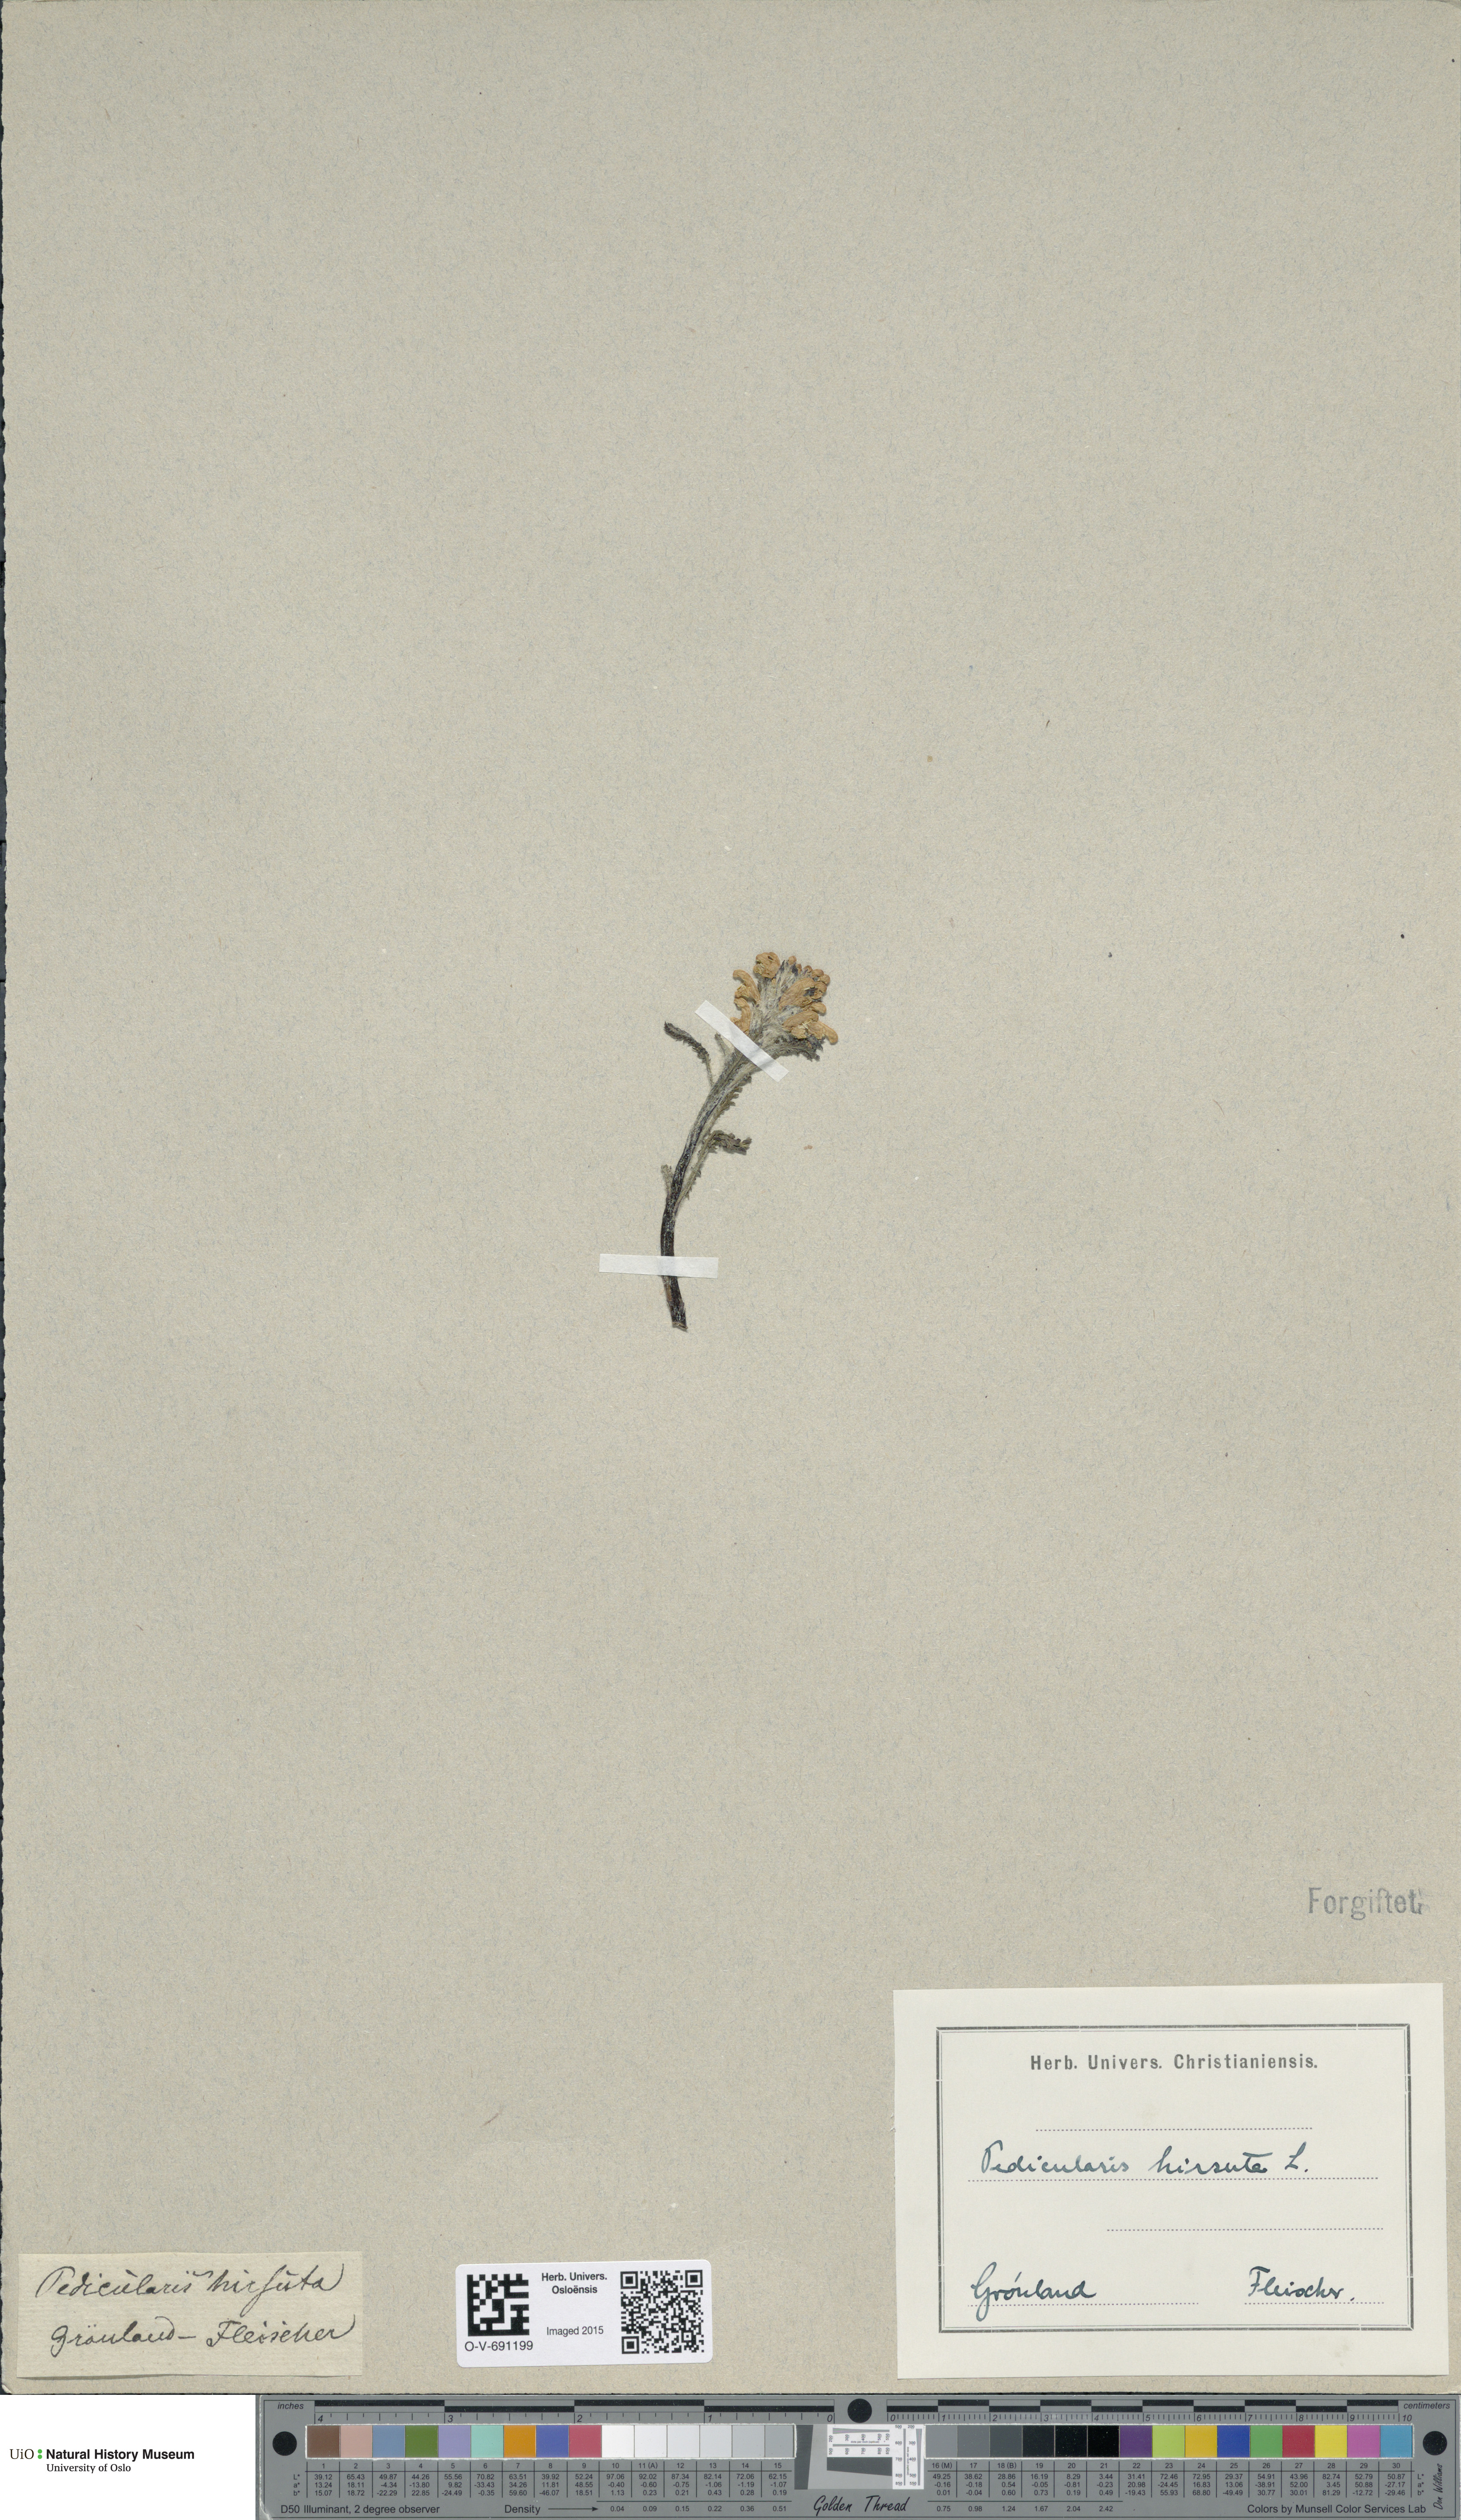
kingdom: Plantae
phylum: Tracheophyta
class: Magnoliopsida
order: Lamiales
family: Orobanchaceae
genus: Pedicularis
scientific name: Pedicularis hirsuta
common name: Hairy lousewort
